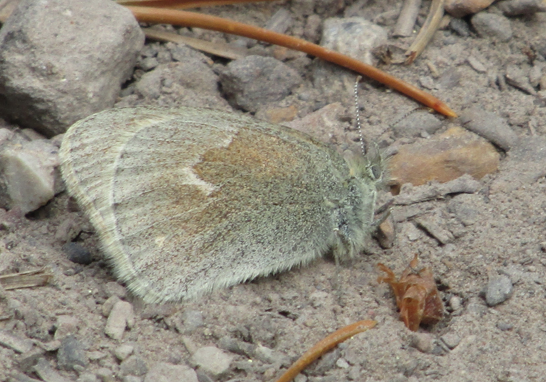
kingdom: Animalia
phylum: Arthropoda
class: Insecta
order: Lepidoptera
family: Nymphalidae
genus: Coenonympha
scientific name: Coenonympha tullia
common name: Large Heath
